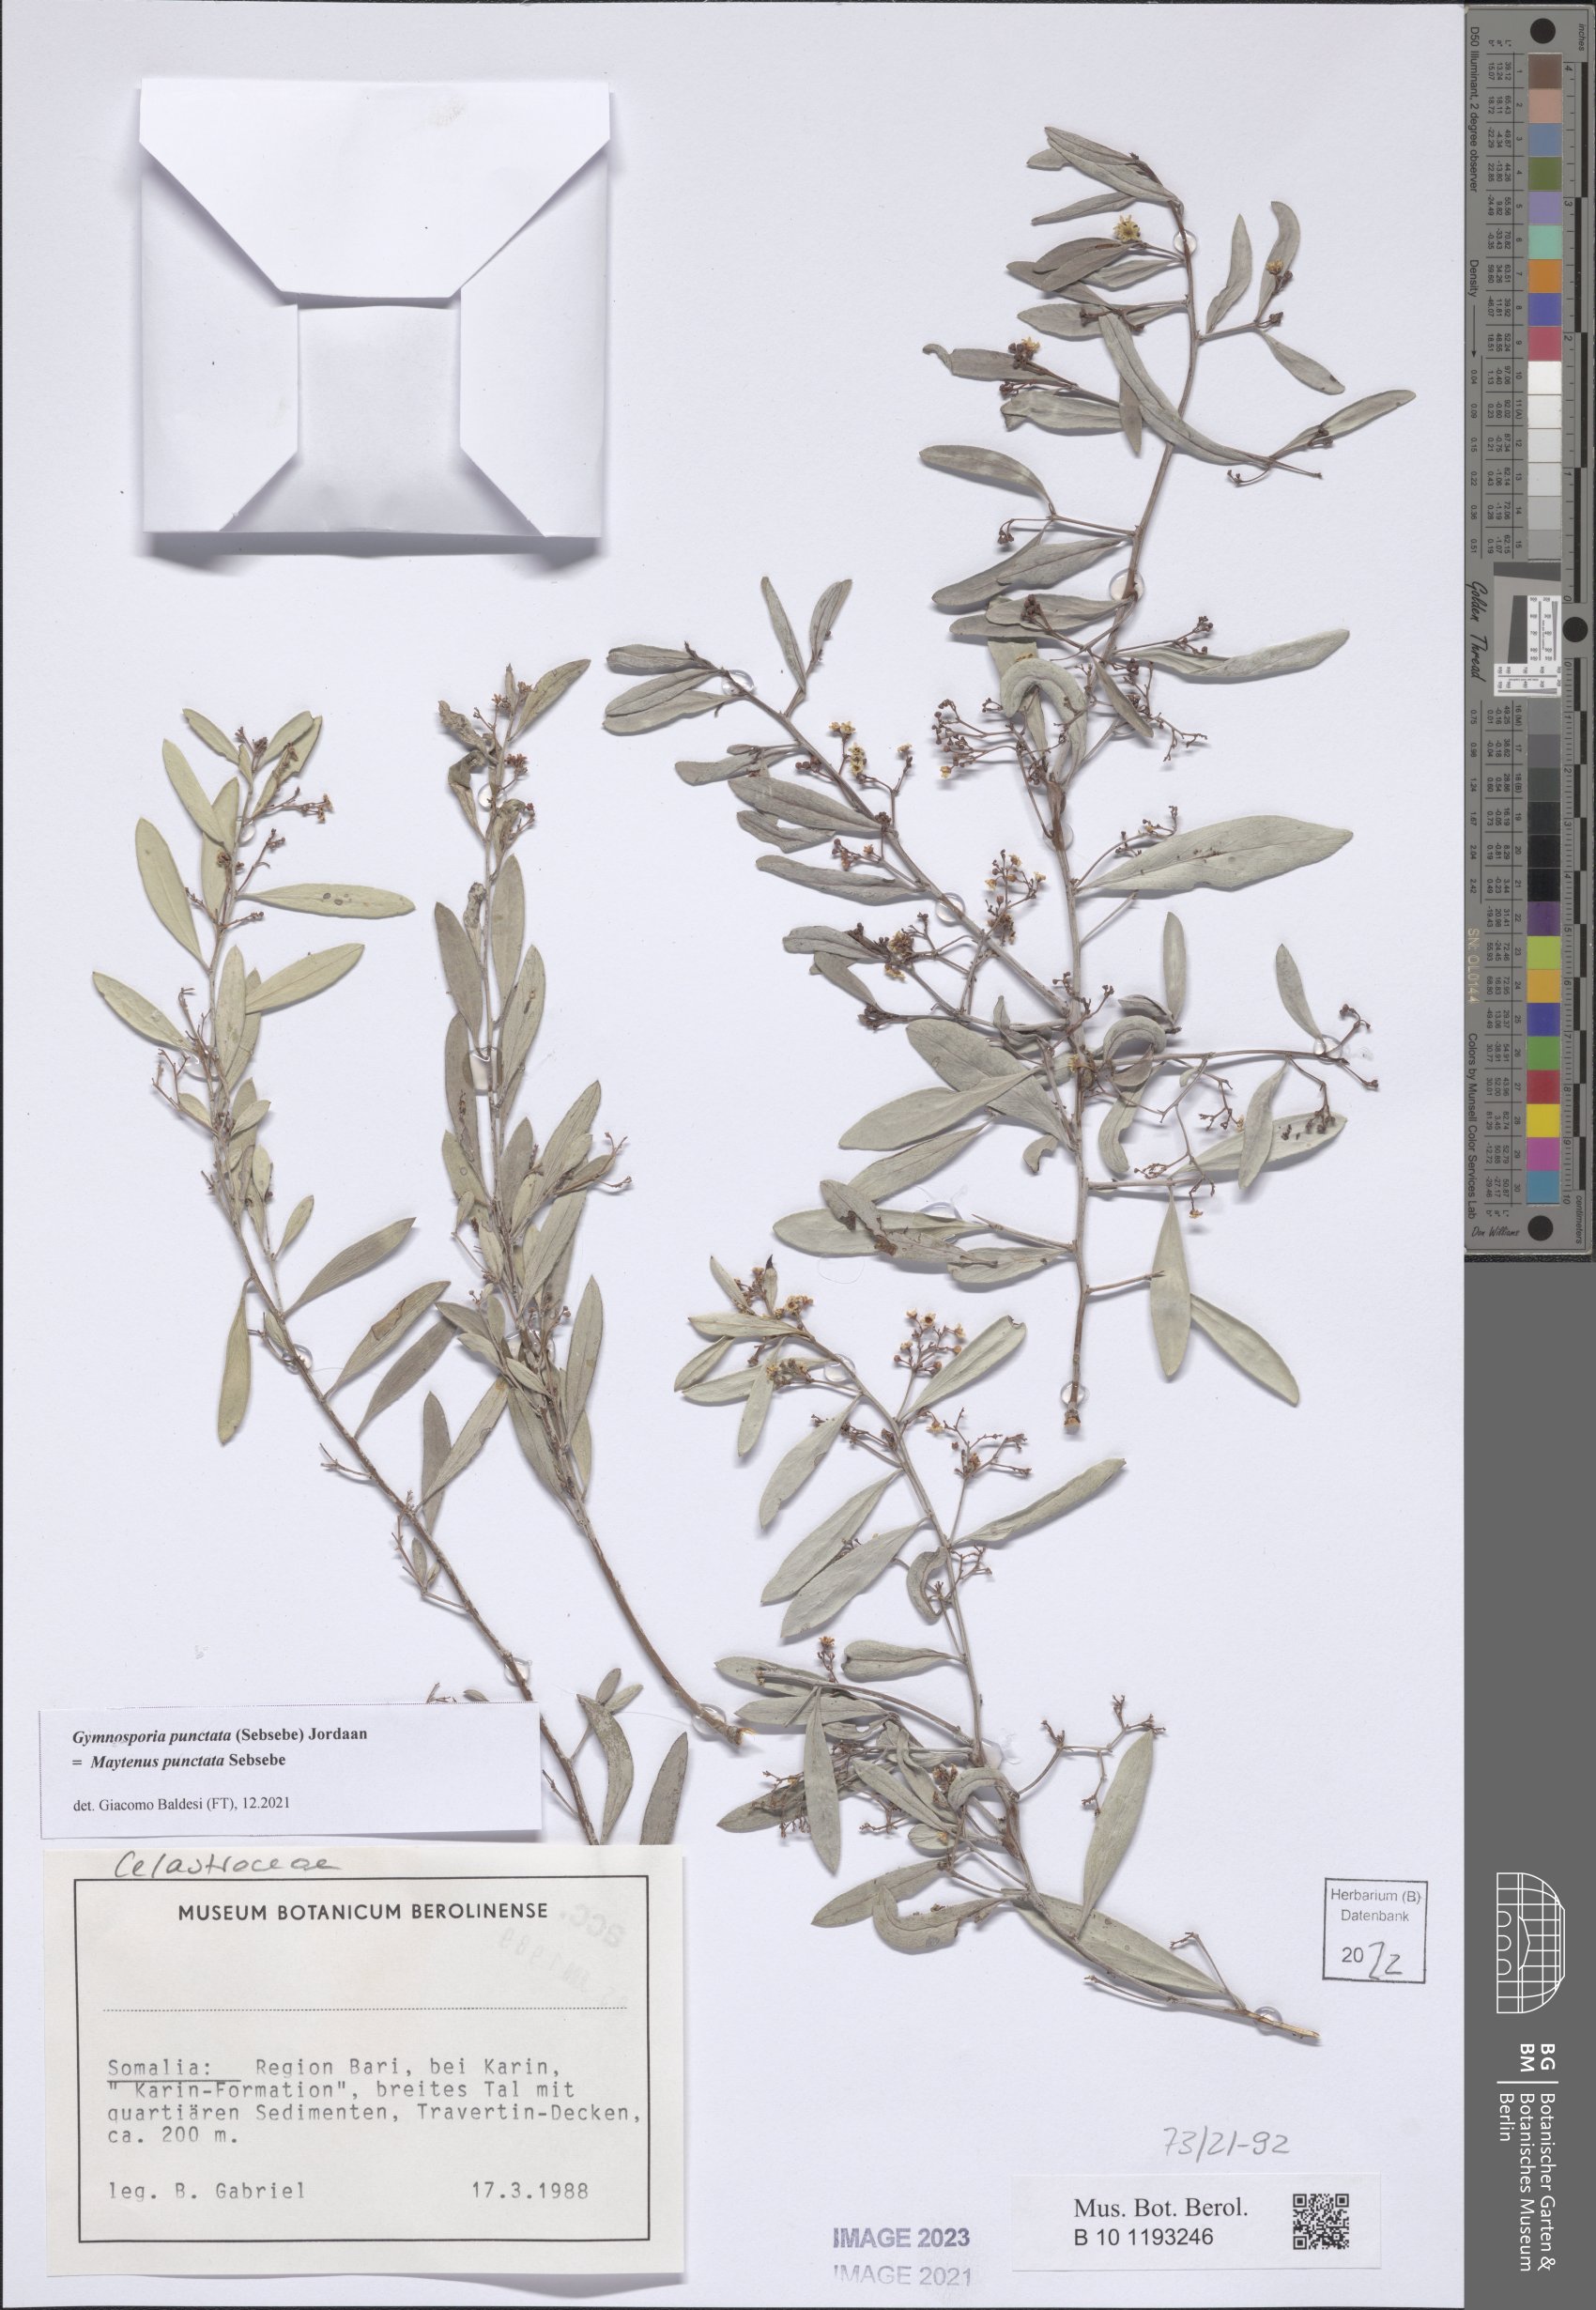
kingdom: Plantae
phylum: Tracheophyta
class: Magnoliopsida
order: Celastrales
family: Celastraceae
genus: Gymnosporia
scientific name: Gymnosporia punctata
